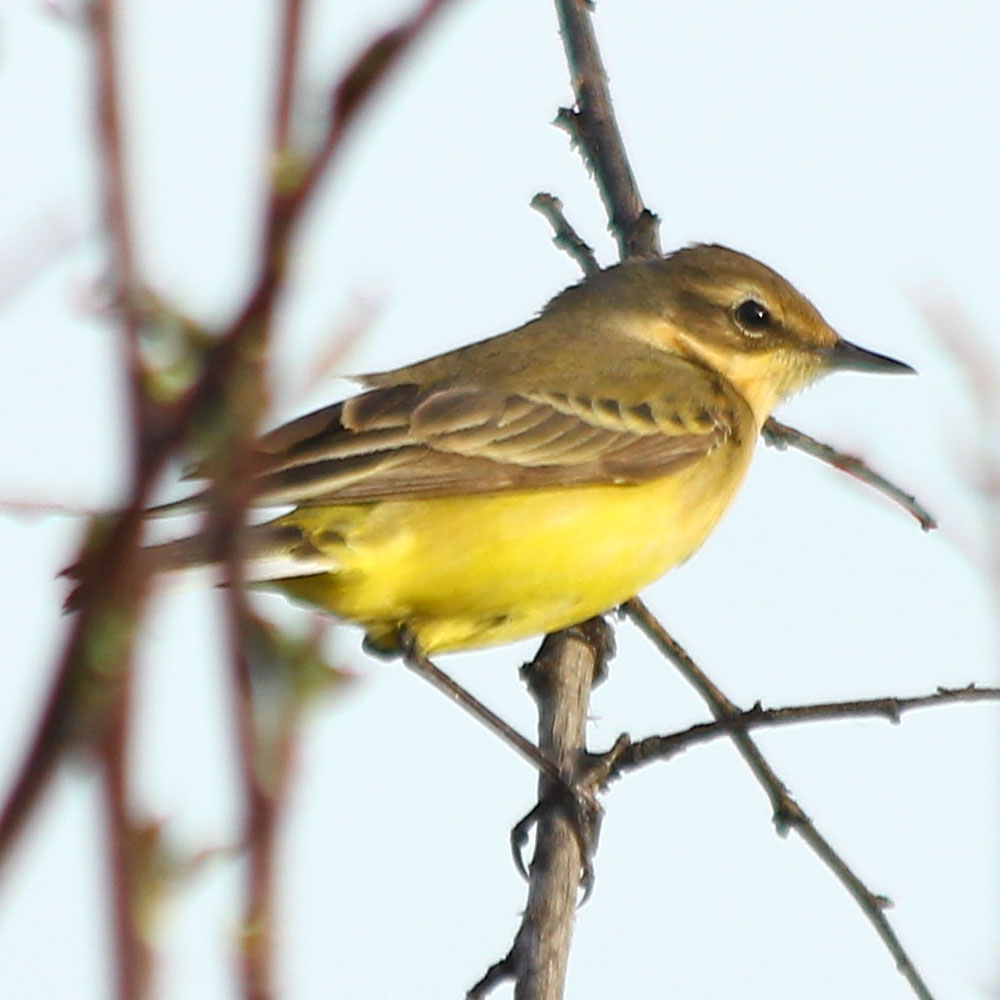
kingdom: Animalia
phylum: Chordata
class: Aves
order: Passeriformes
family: Motacillidae
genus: Motacilla
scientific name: Motacilla flava
